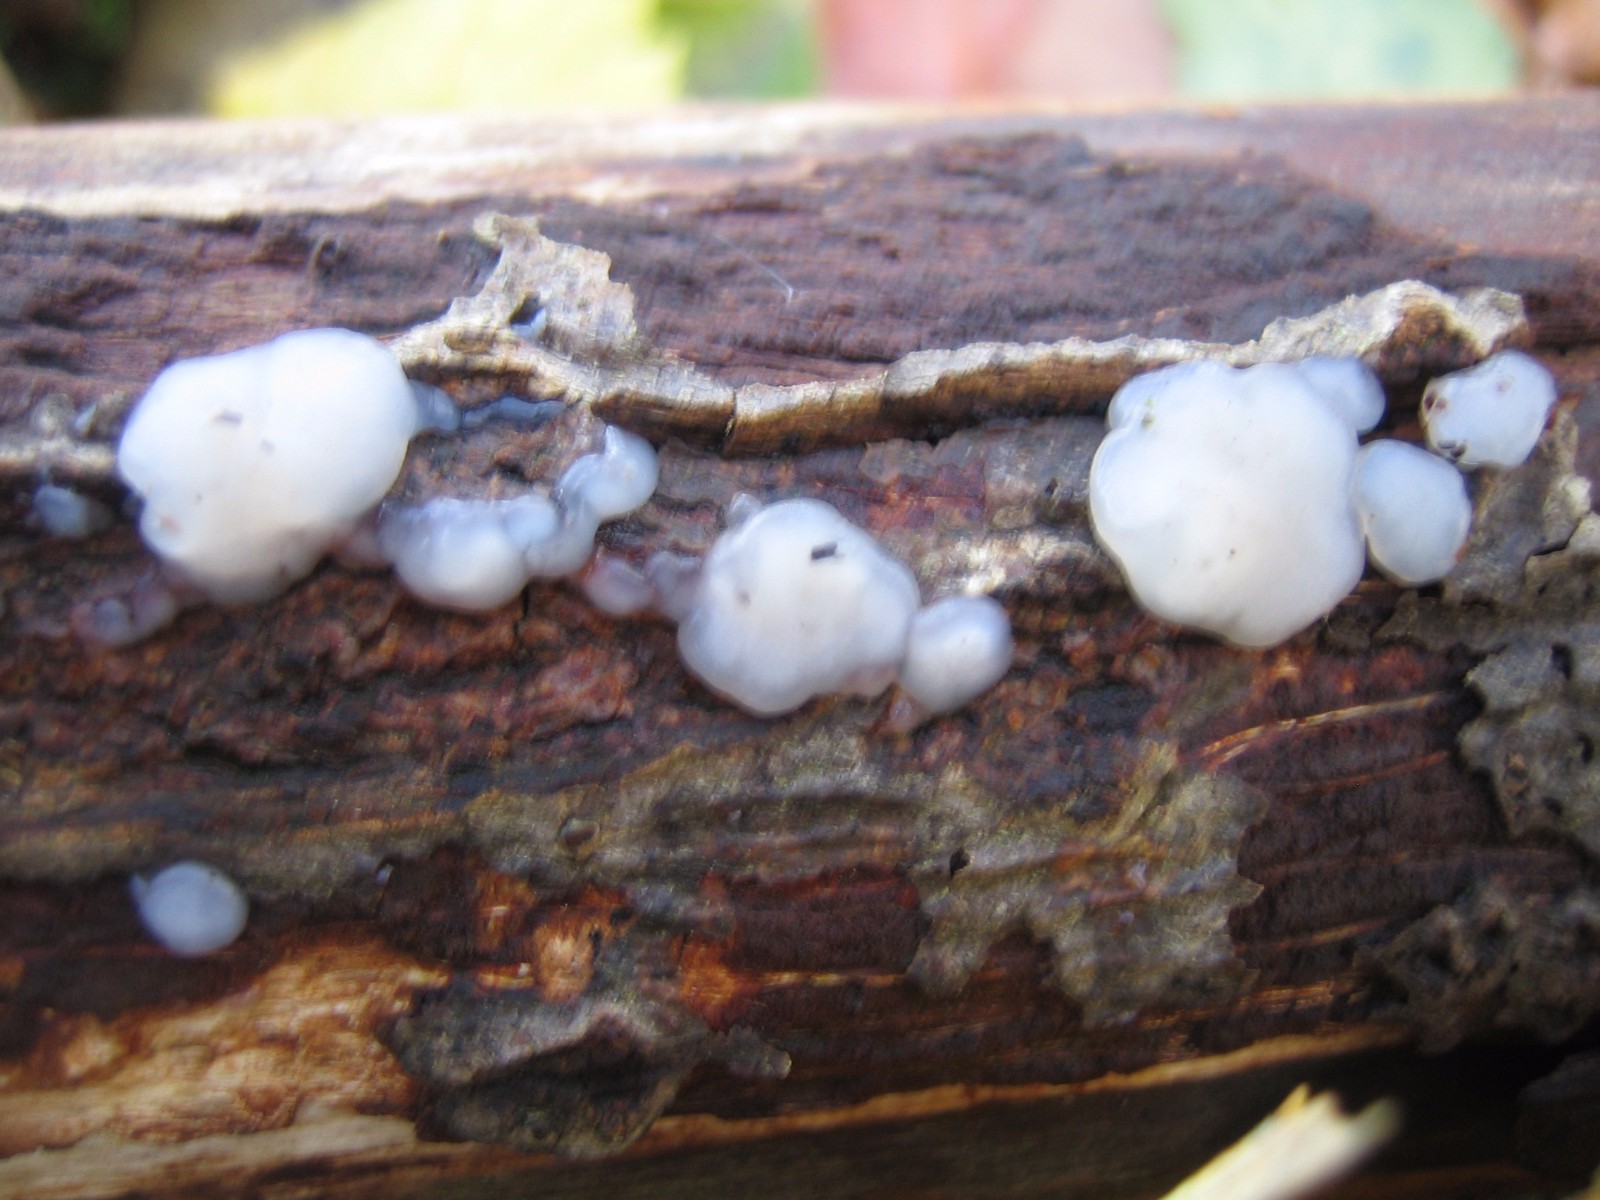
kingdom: Fungi
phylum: Basidiomycota
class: Agaricomycetes
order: Auriculariales
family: Auriculariaceae
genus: Exidia
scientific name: Exidia thuretiana
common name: hvidlig bævretop
